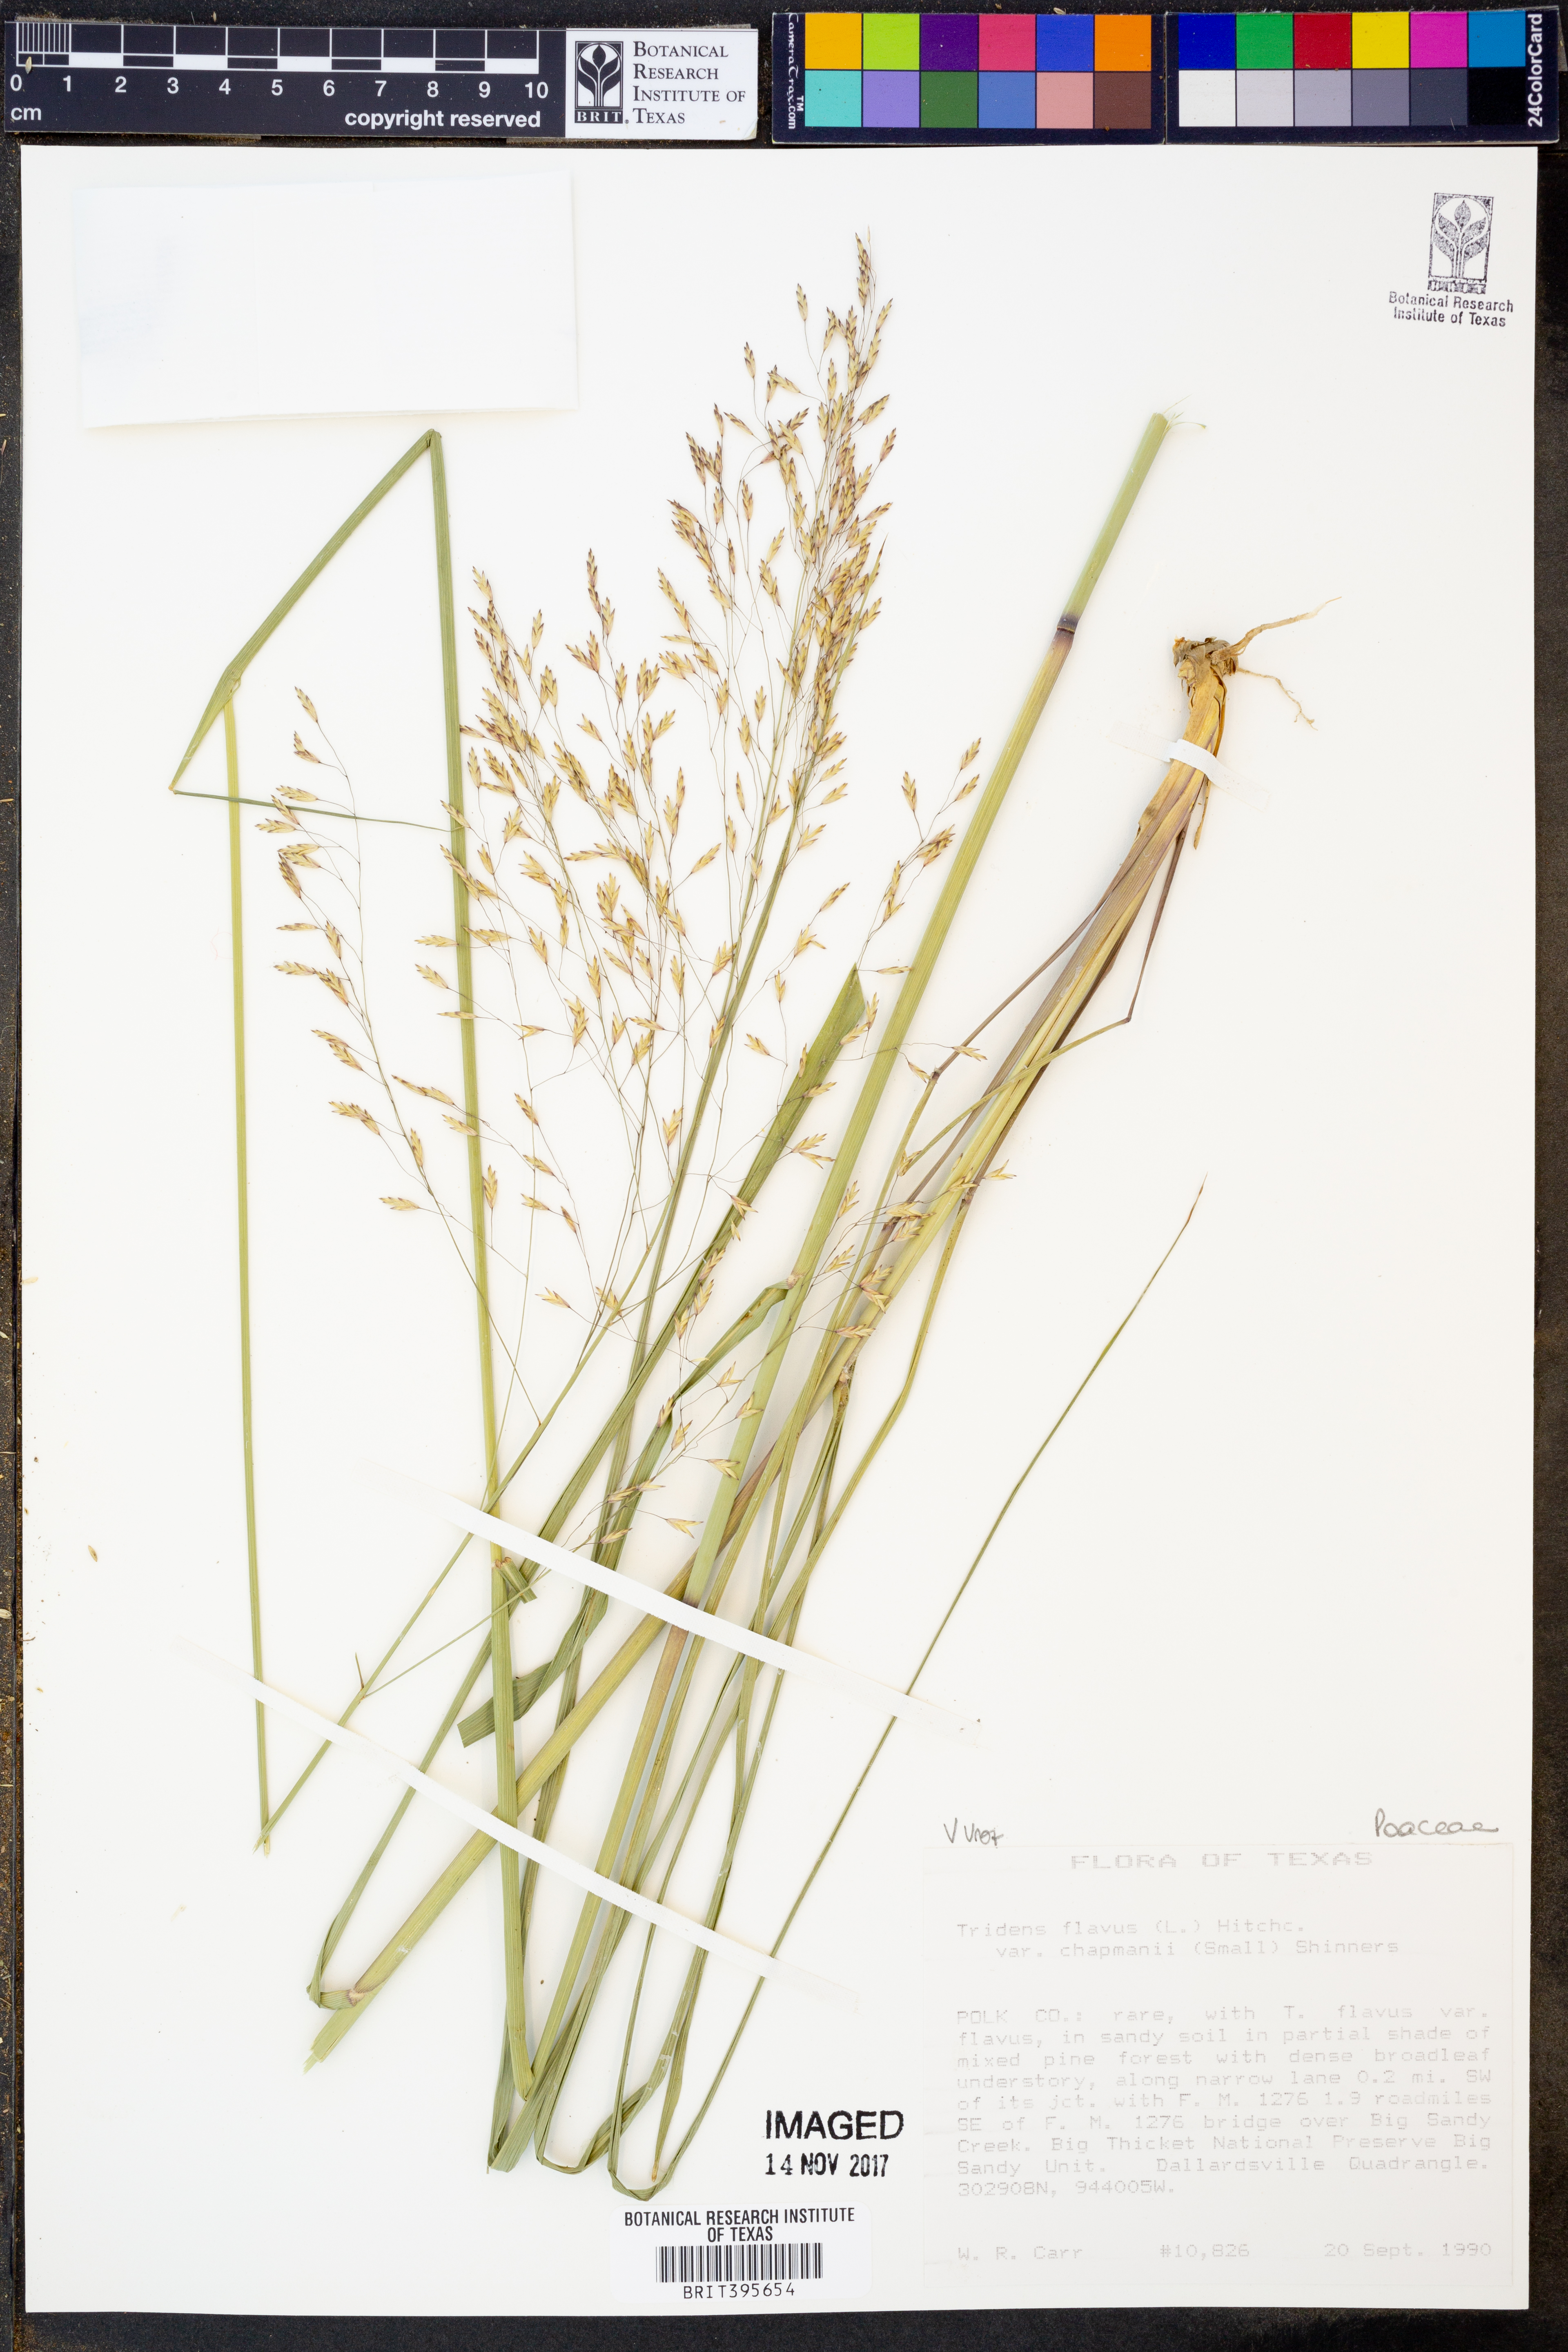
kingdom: Plantae
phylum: Tracheophyta
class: Liliopsida
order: Poales
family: Poaceae
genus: Tridens
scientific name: Tridens flavus
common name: Purpletop
